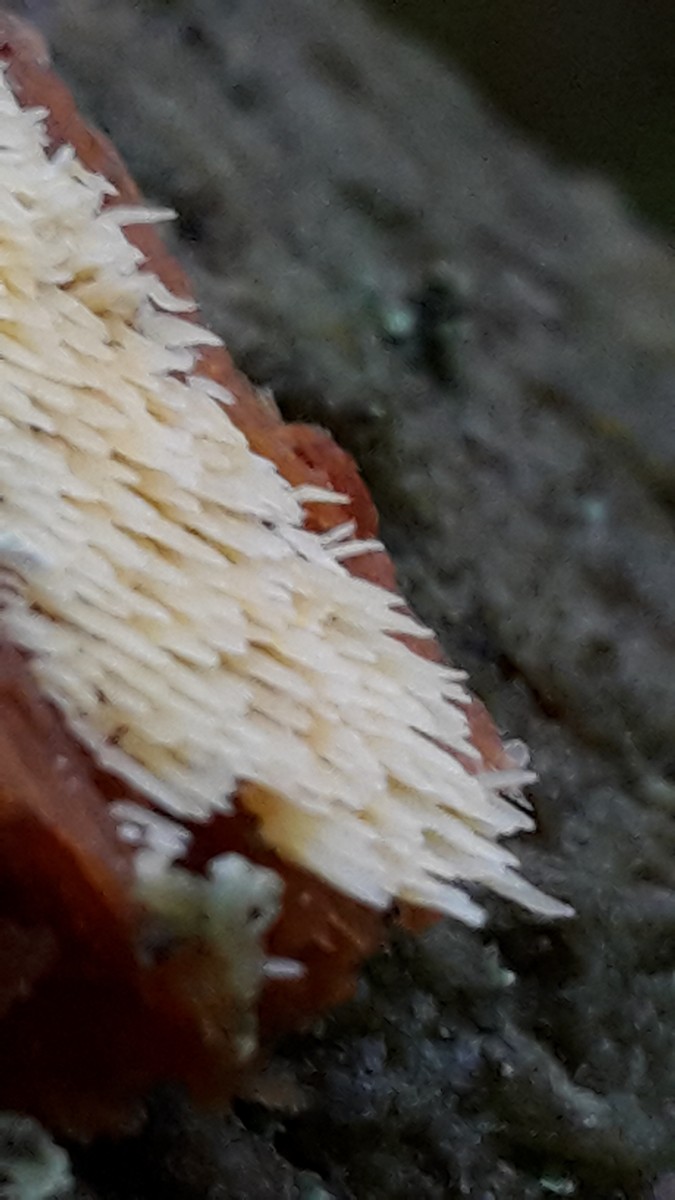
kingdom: Fungi
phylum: Basidiomycota
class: Agaricomycetes
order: Agaricales
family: Clavariaceae
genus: Mucronella
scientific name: Mucronella flava
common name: gul hængepig
